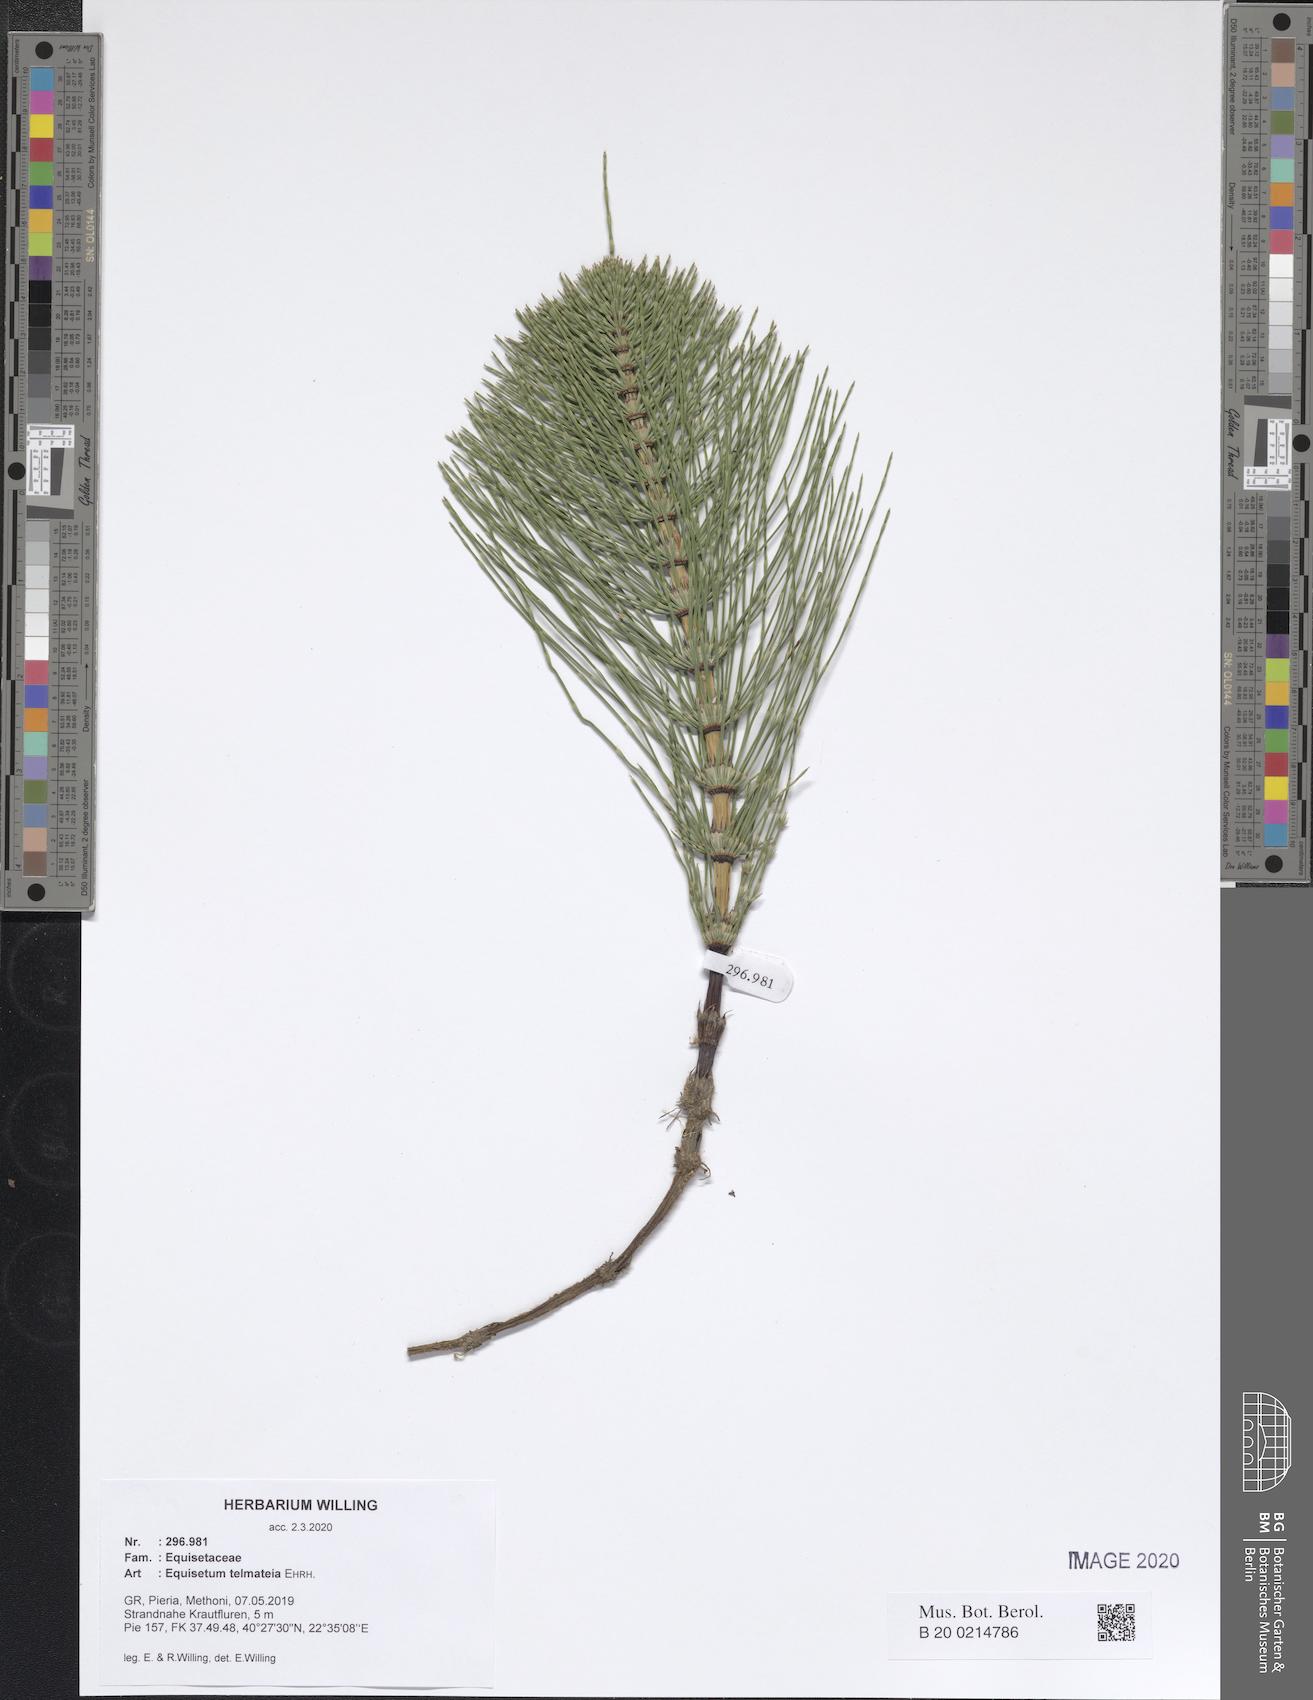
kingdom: Plantae
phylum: Tracheophyta
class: Polypodiopsida
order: Equisetales
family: Equisetaceae
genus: Equisetum
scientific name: Equisetum telmateia
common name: Great horsetail
